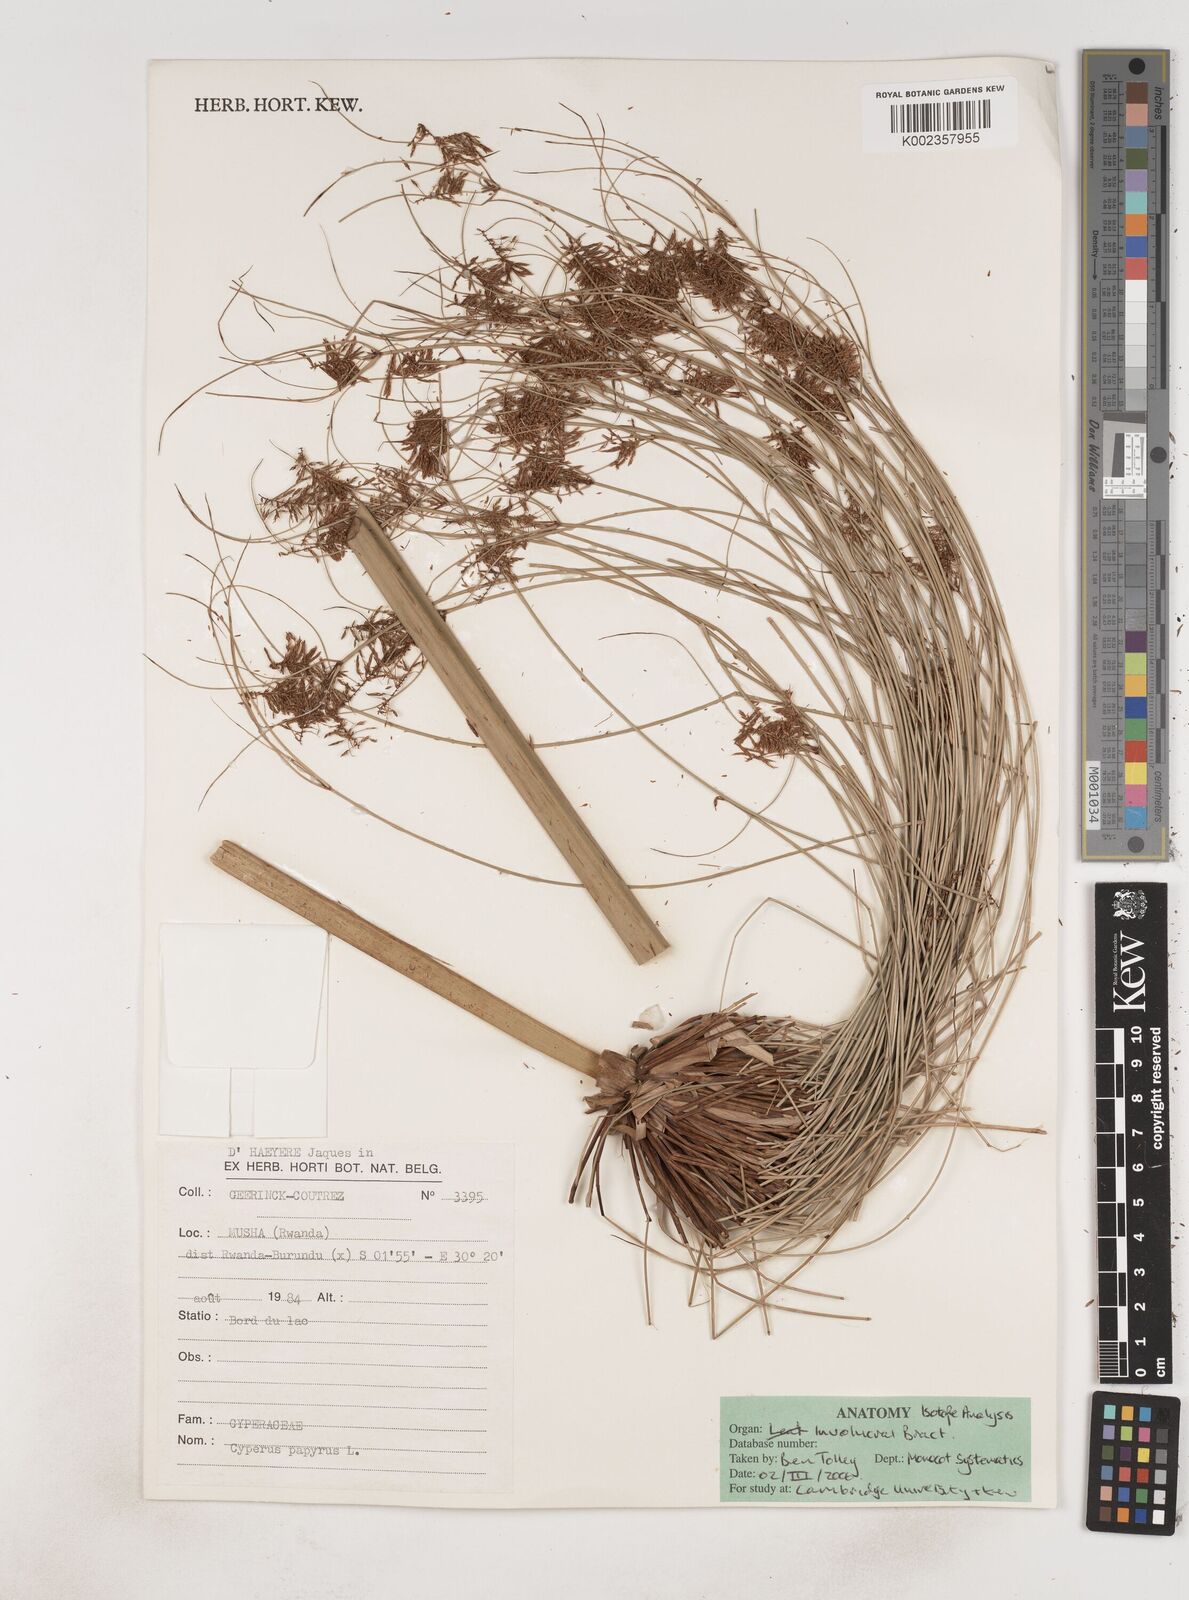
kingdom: Plantae
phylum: Tracheophyta
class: Liliopsida
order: Poales
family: Cyperaceae
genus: Cyperus
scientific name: Cyperus papyrus
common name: Papyrus
